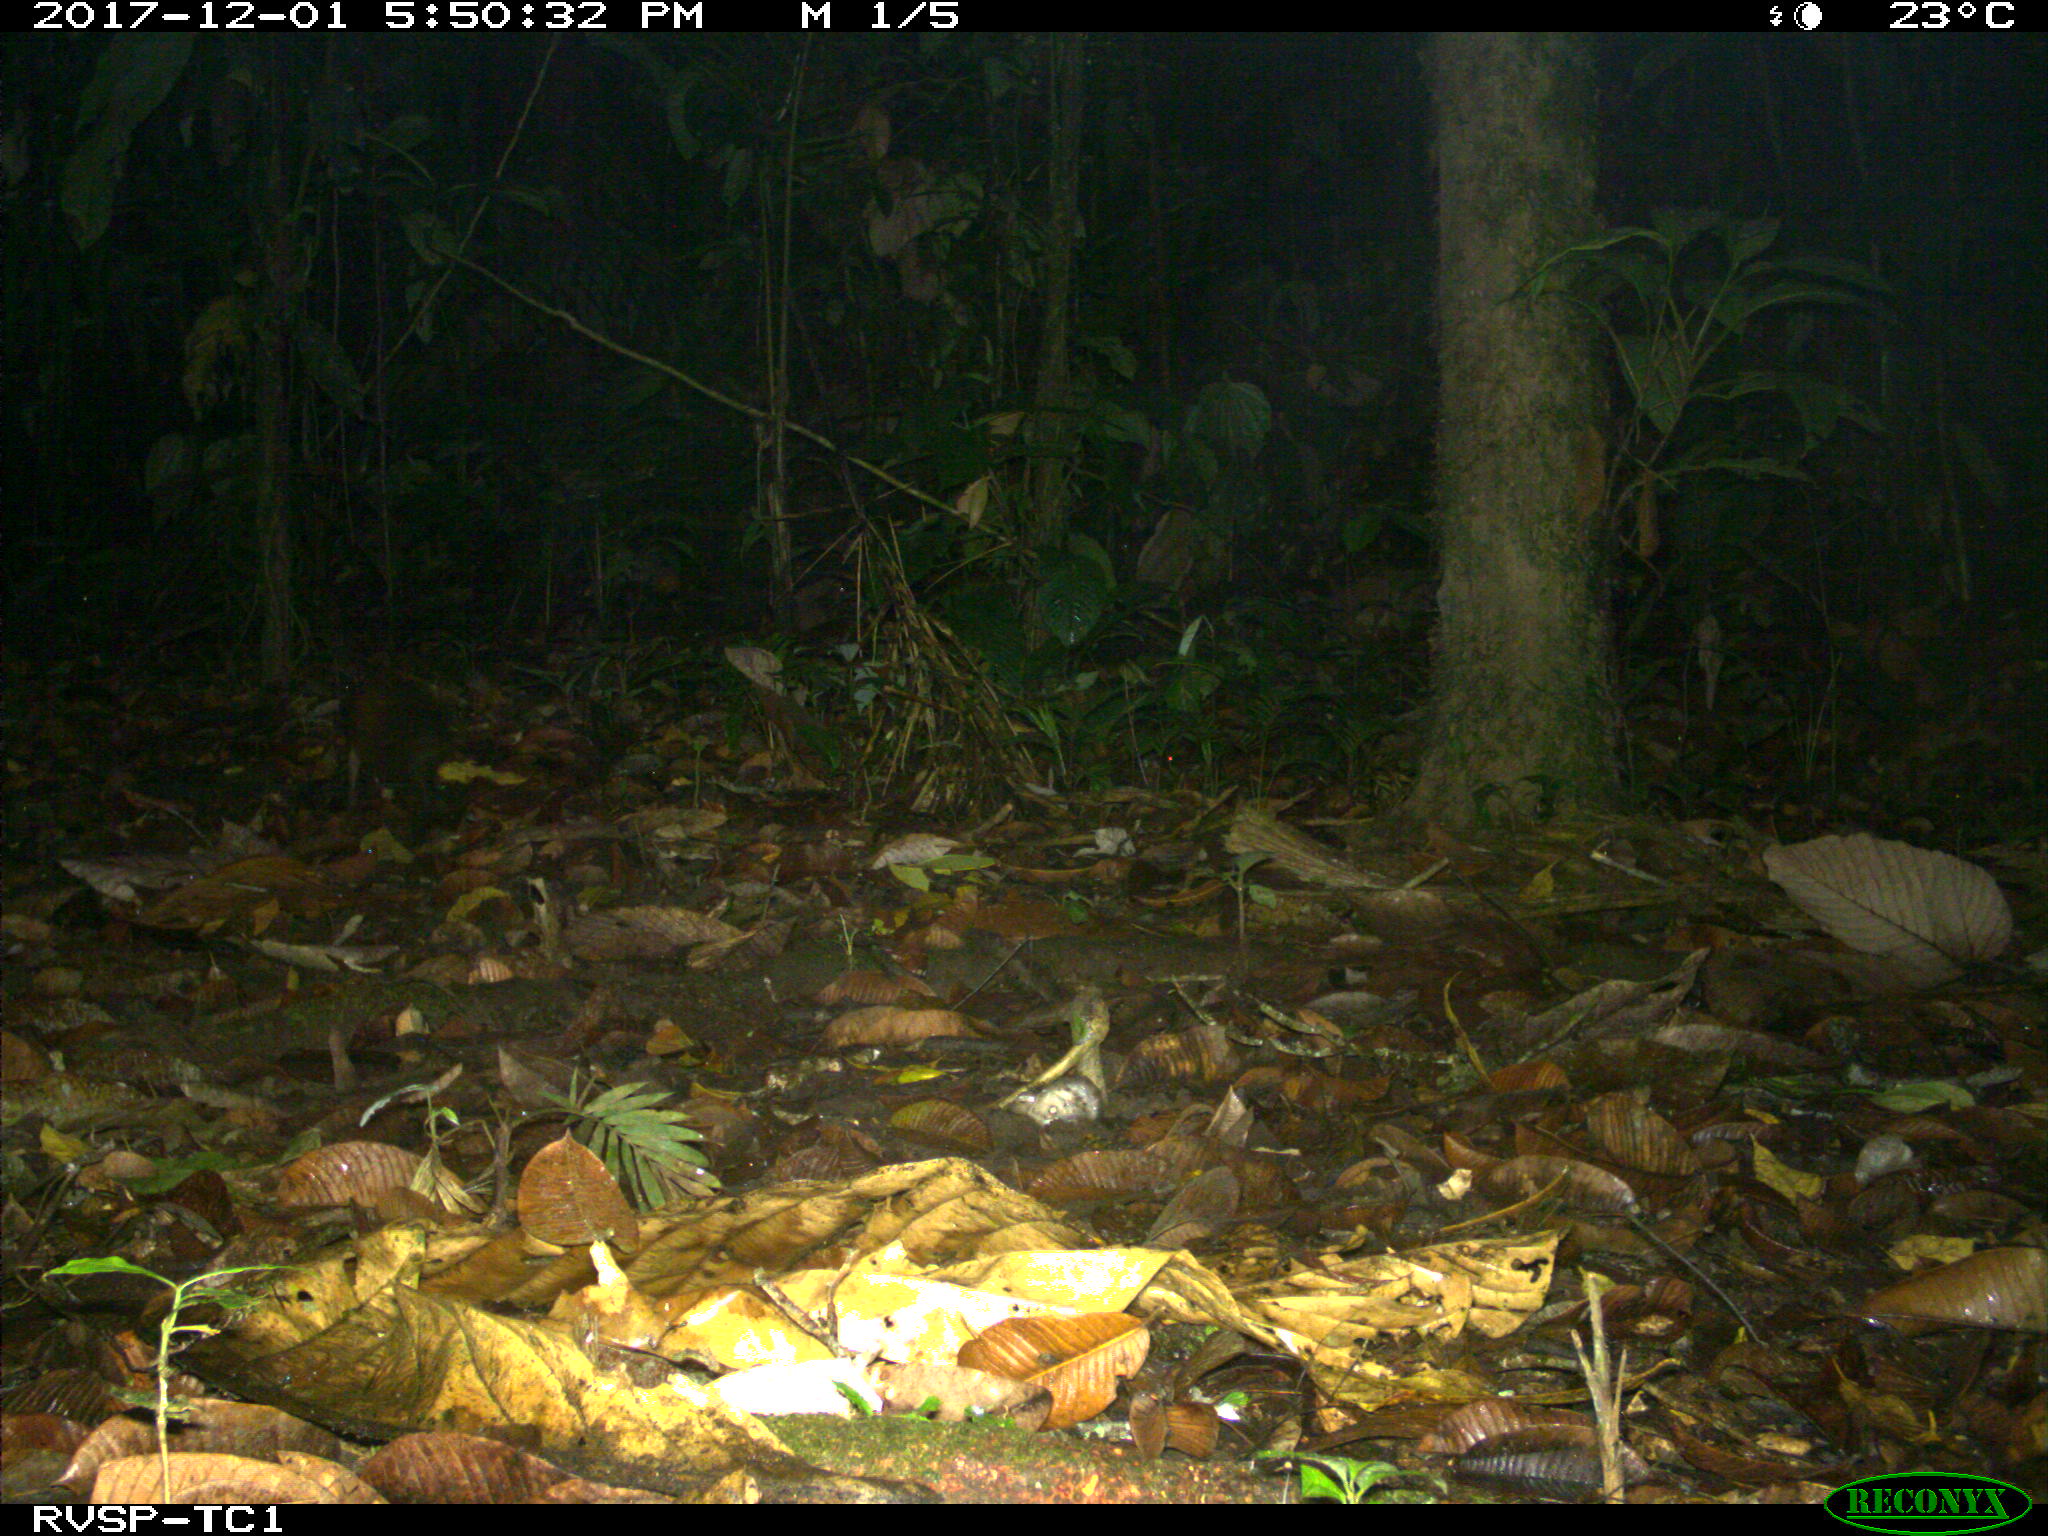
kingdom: Animalia
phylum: Chordata
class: Mammalia
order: Rodentia
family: Dasyproctidae
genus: Dasyprocta
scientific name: Dasyprocta punctata
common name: Central american agouti
